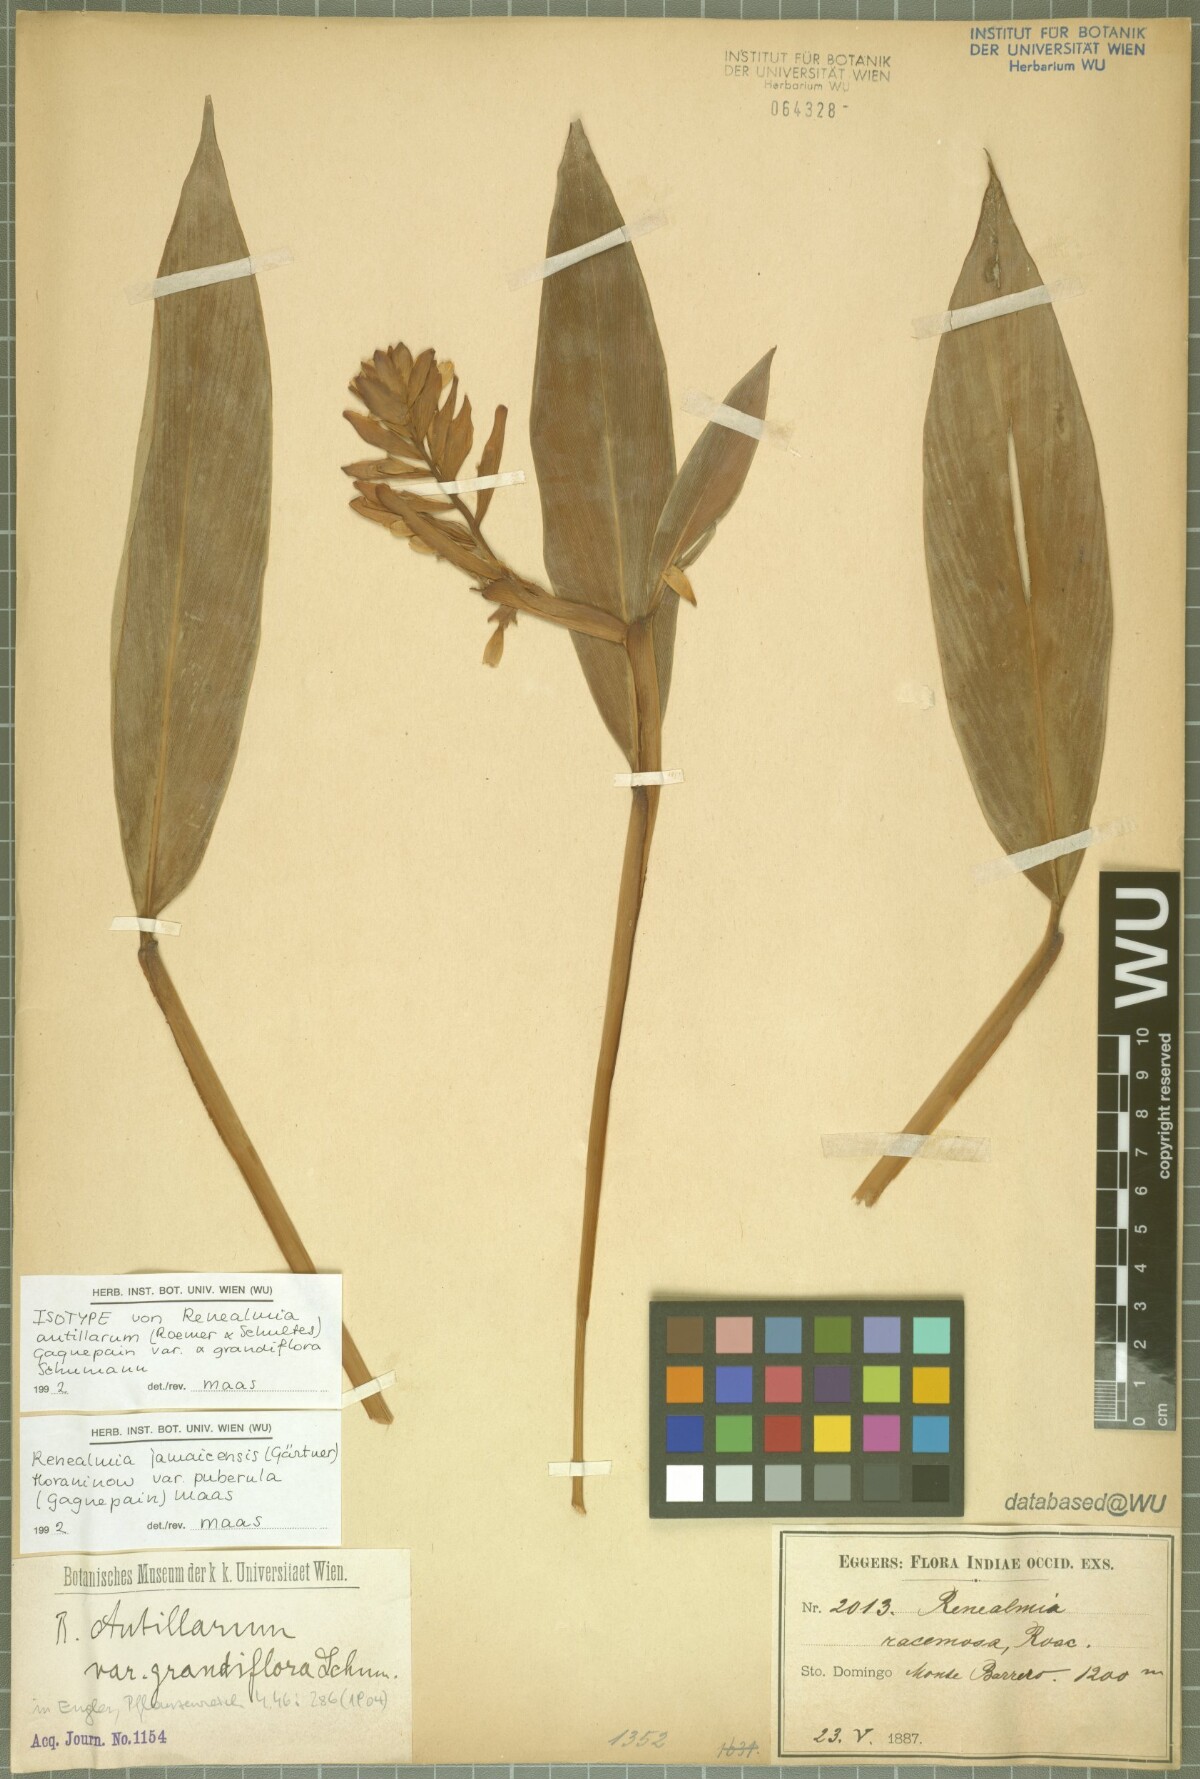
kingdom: Plantae
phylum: Tracheophyta
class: Liliopsida
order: Zingiberales
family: Zingiberaceae
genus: Renealmia
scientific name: Renealmia jamaicensis
